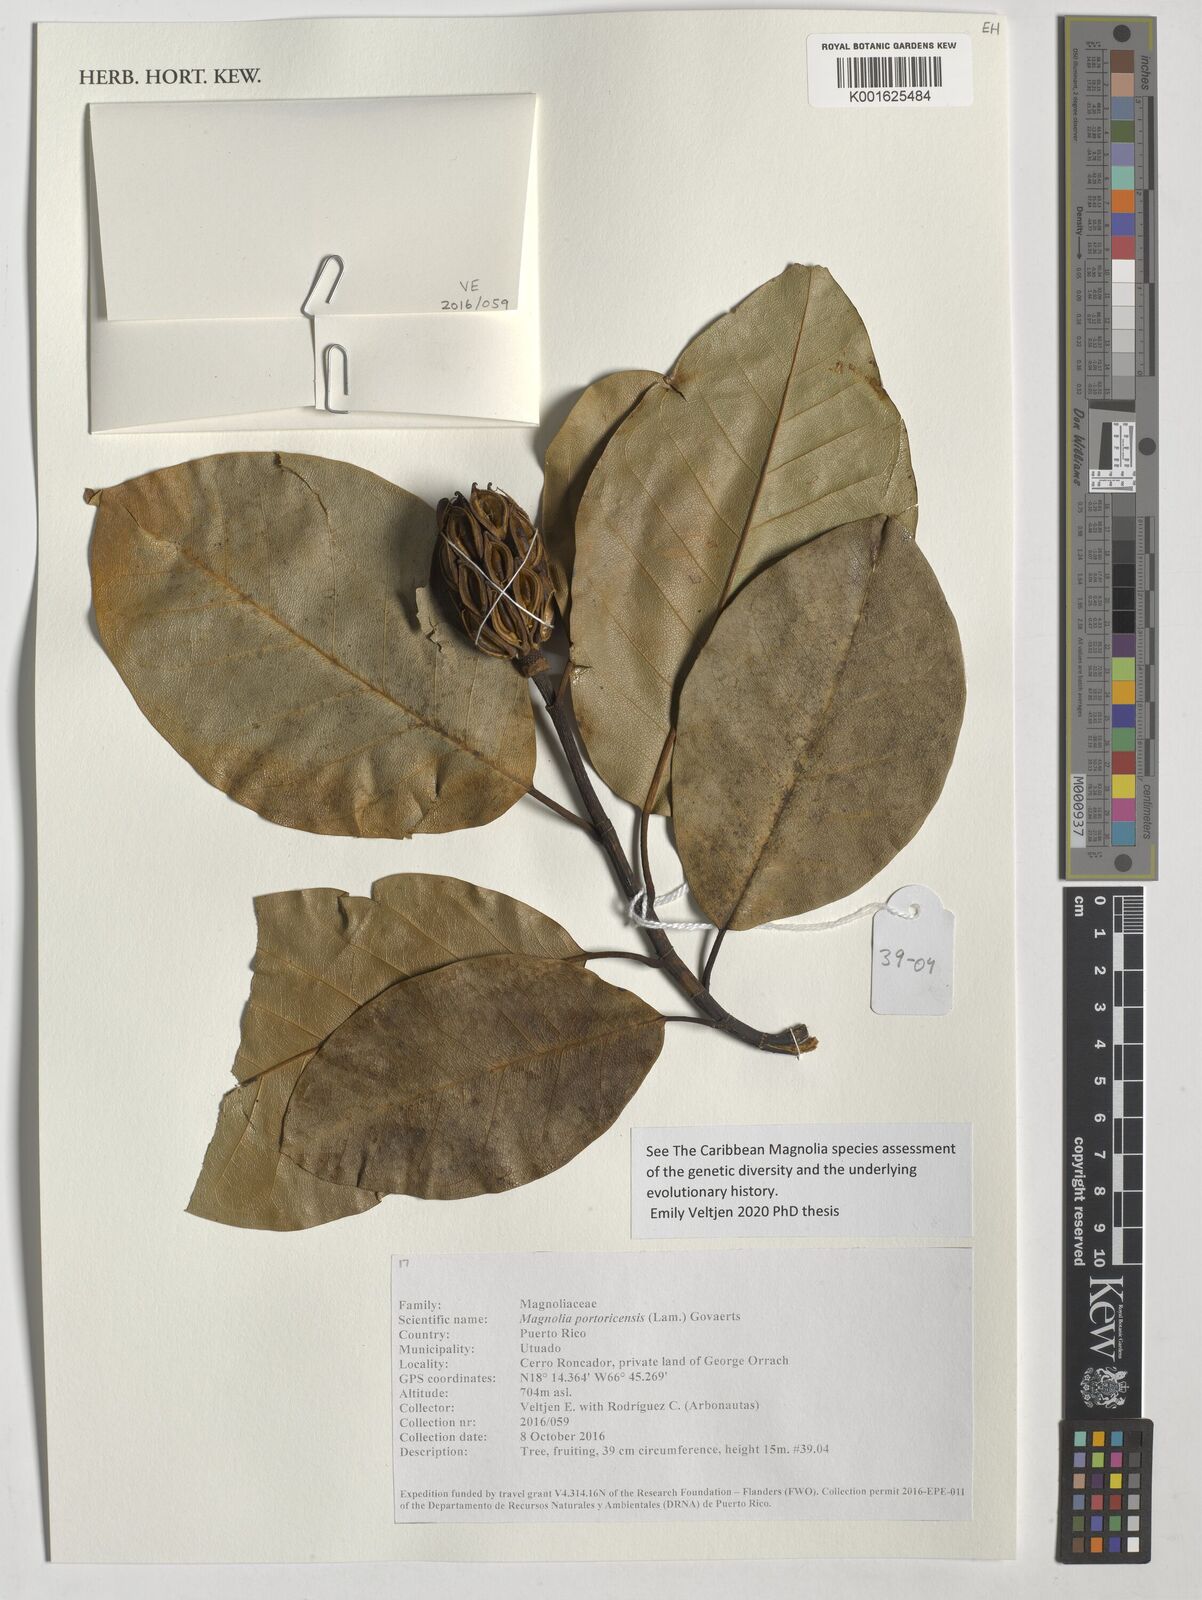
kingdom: Plantae
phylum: Tracheophyta
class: Magnoliopsida
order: Magnoliales
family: Magnoliaceae
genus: Magnolia
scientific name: Magnolia portoricensis
